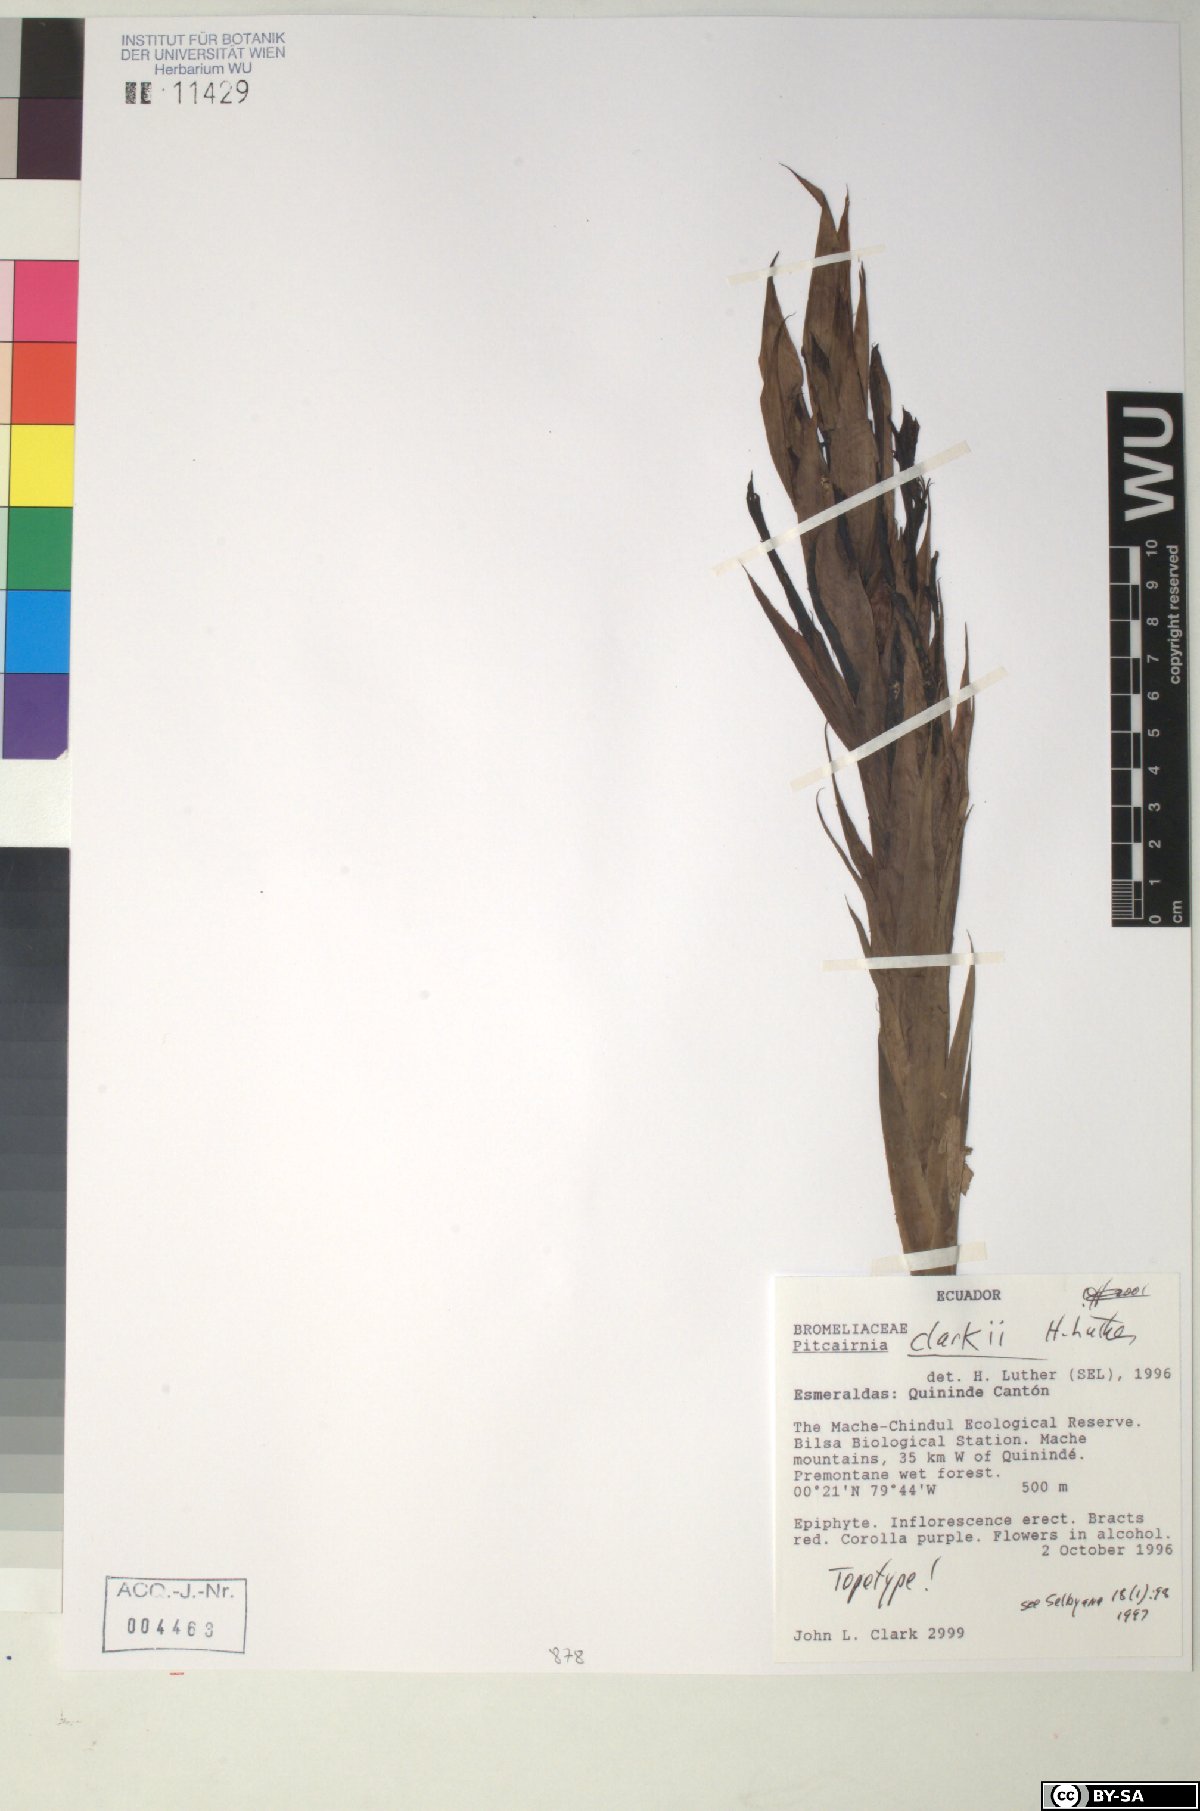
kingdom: Plantae
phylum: Tracheophyta
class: Liliopsida
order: Poales
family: Bromeliaceae
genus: Pitcairnia
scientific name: Pitcairnia clarkii
